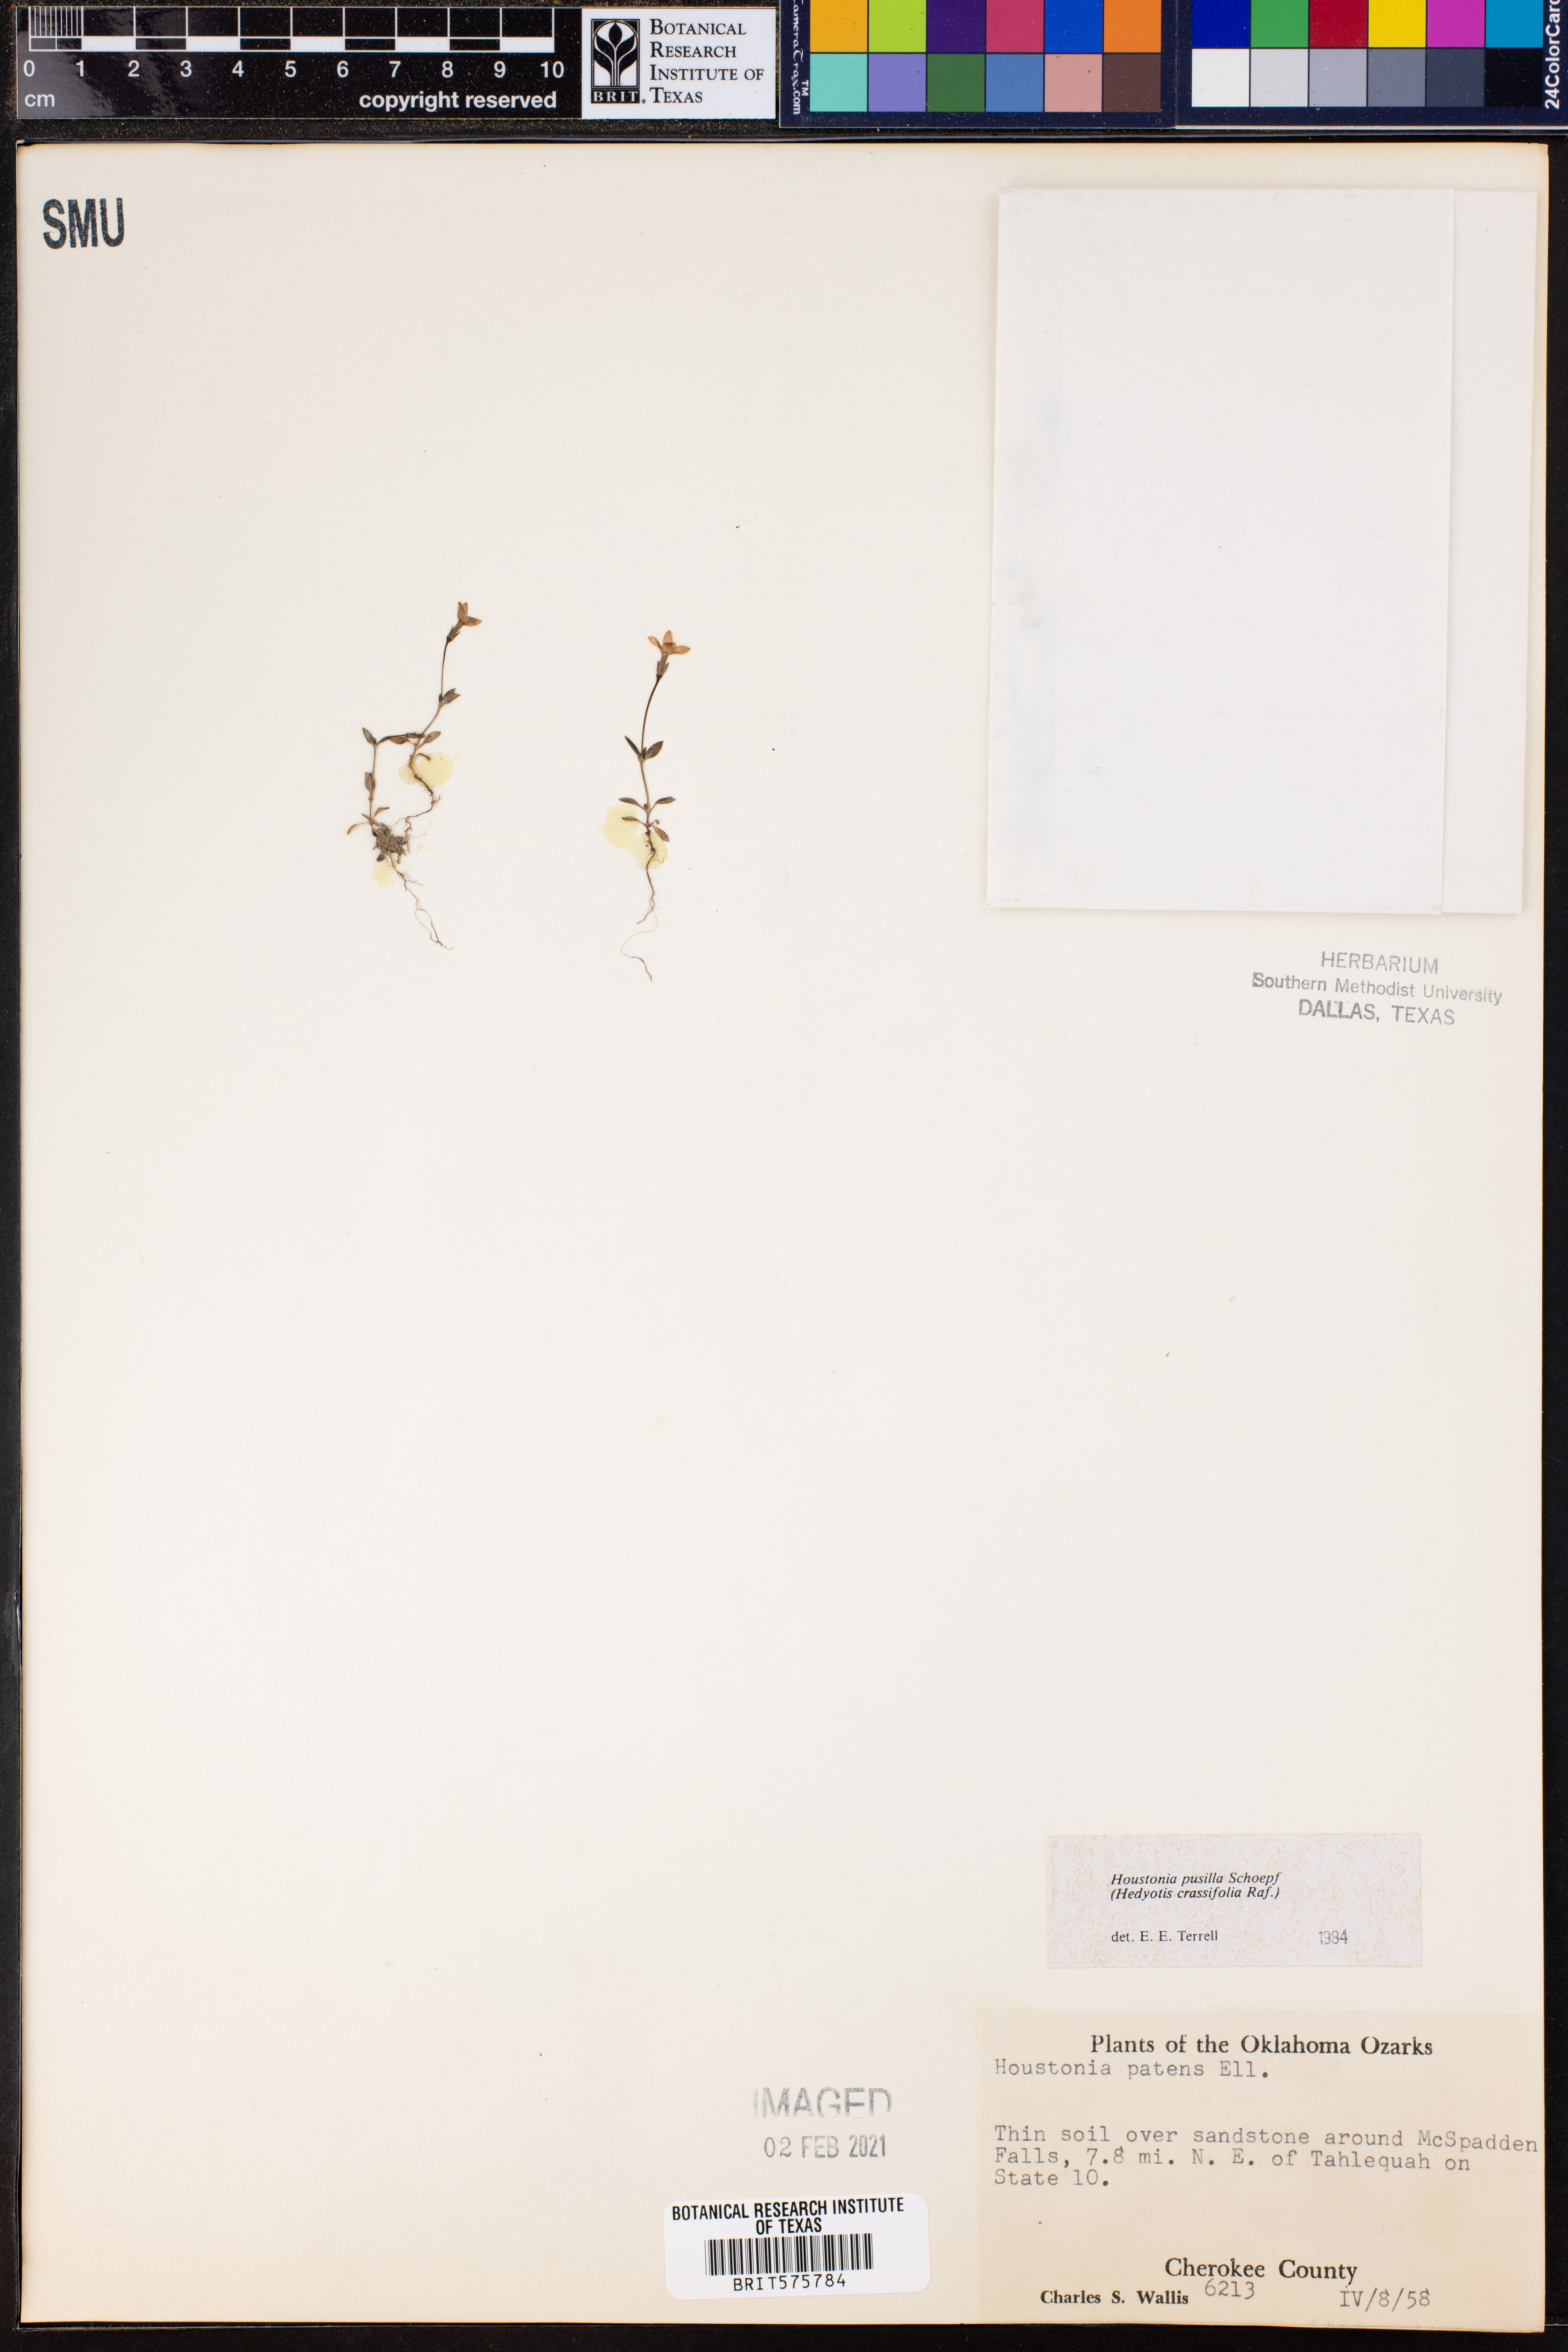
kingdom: Plantae
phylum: Tracheophyta
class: Magnoliopsida
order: Gentianales
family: Rubiaceae
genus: Houstonia
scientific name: Houstonia pusilla
